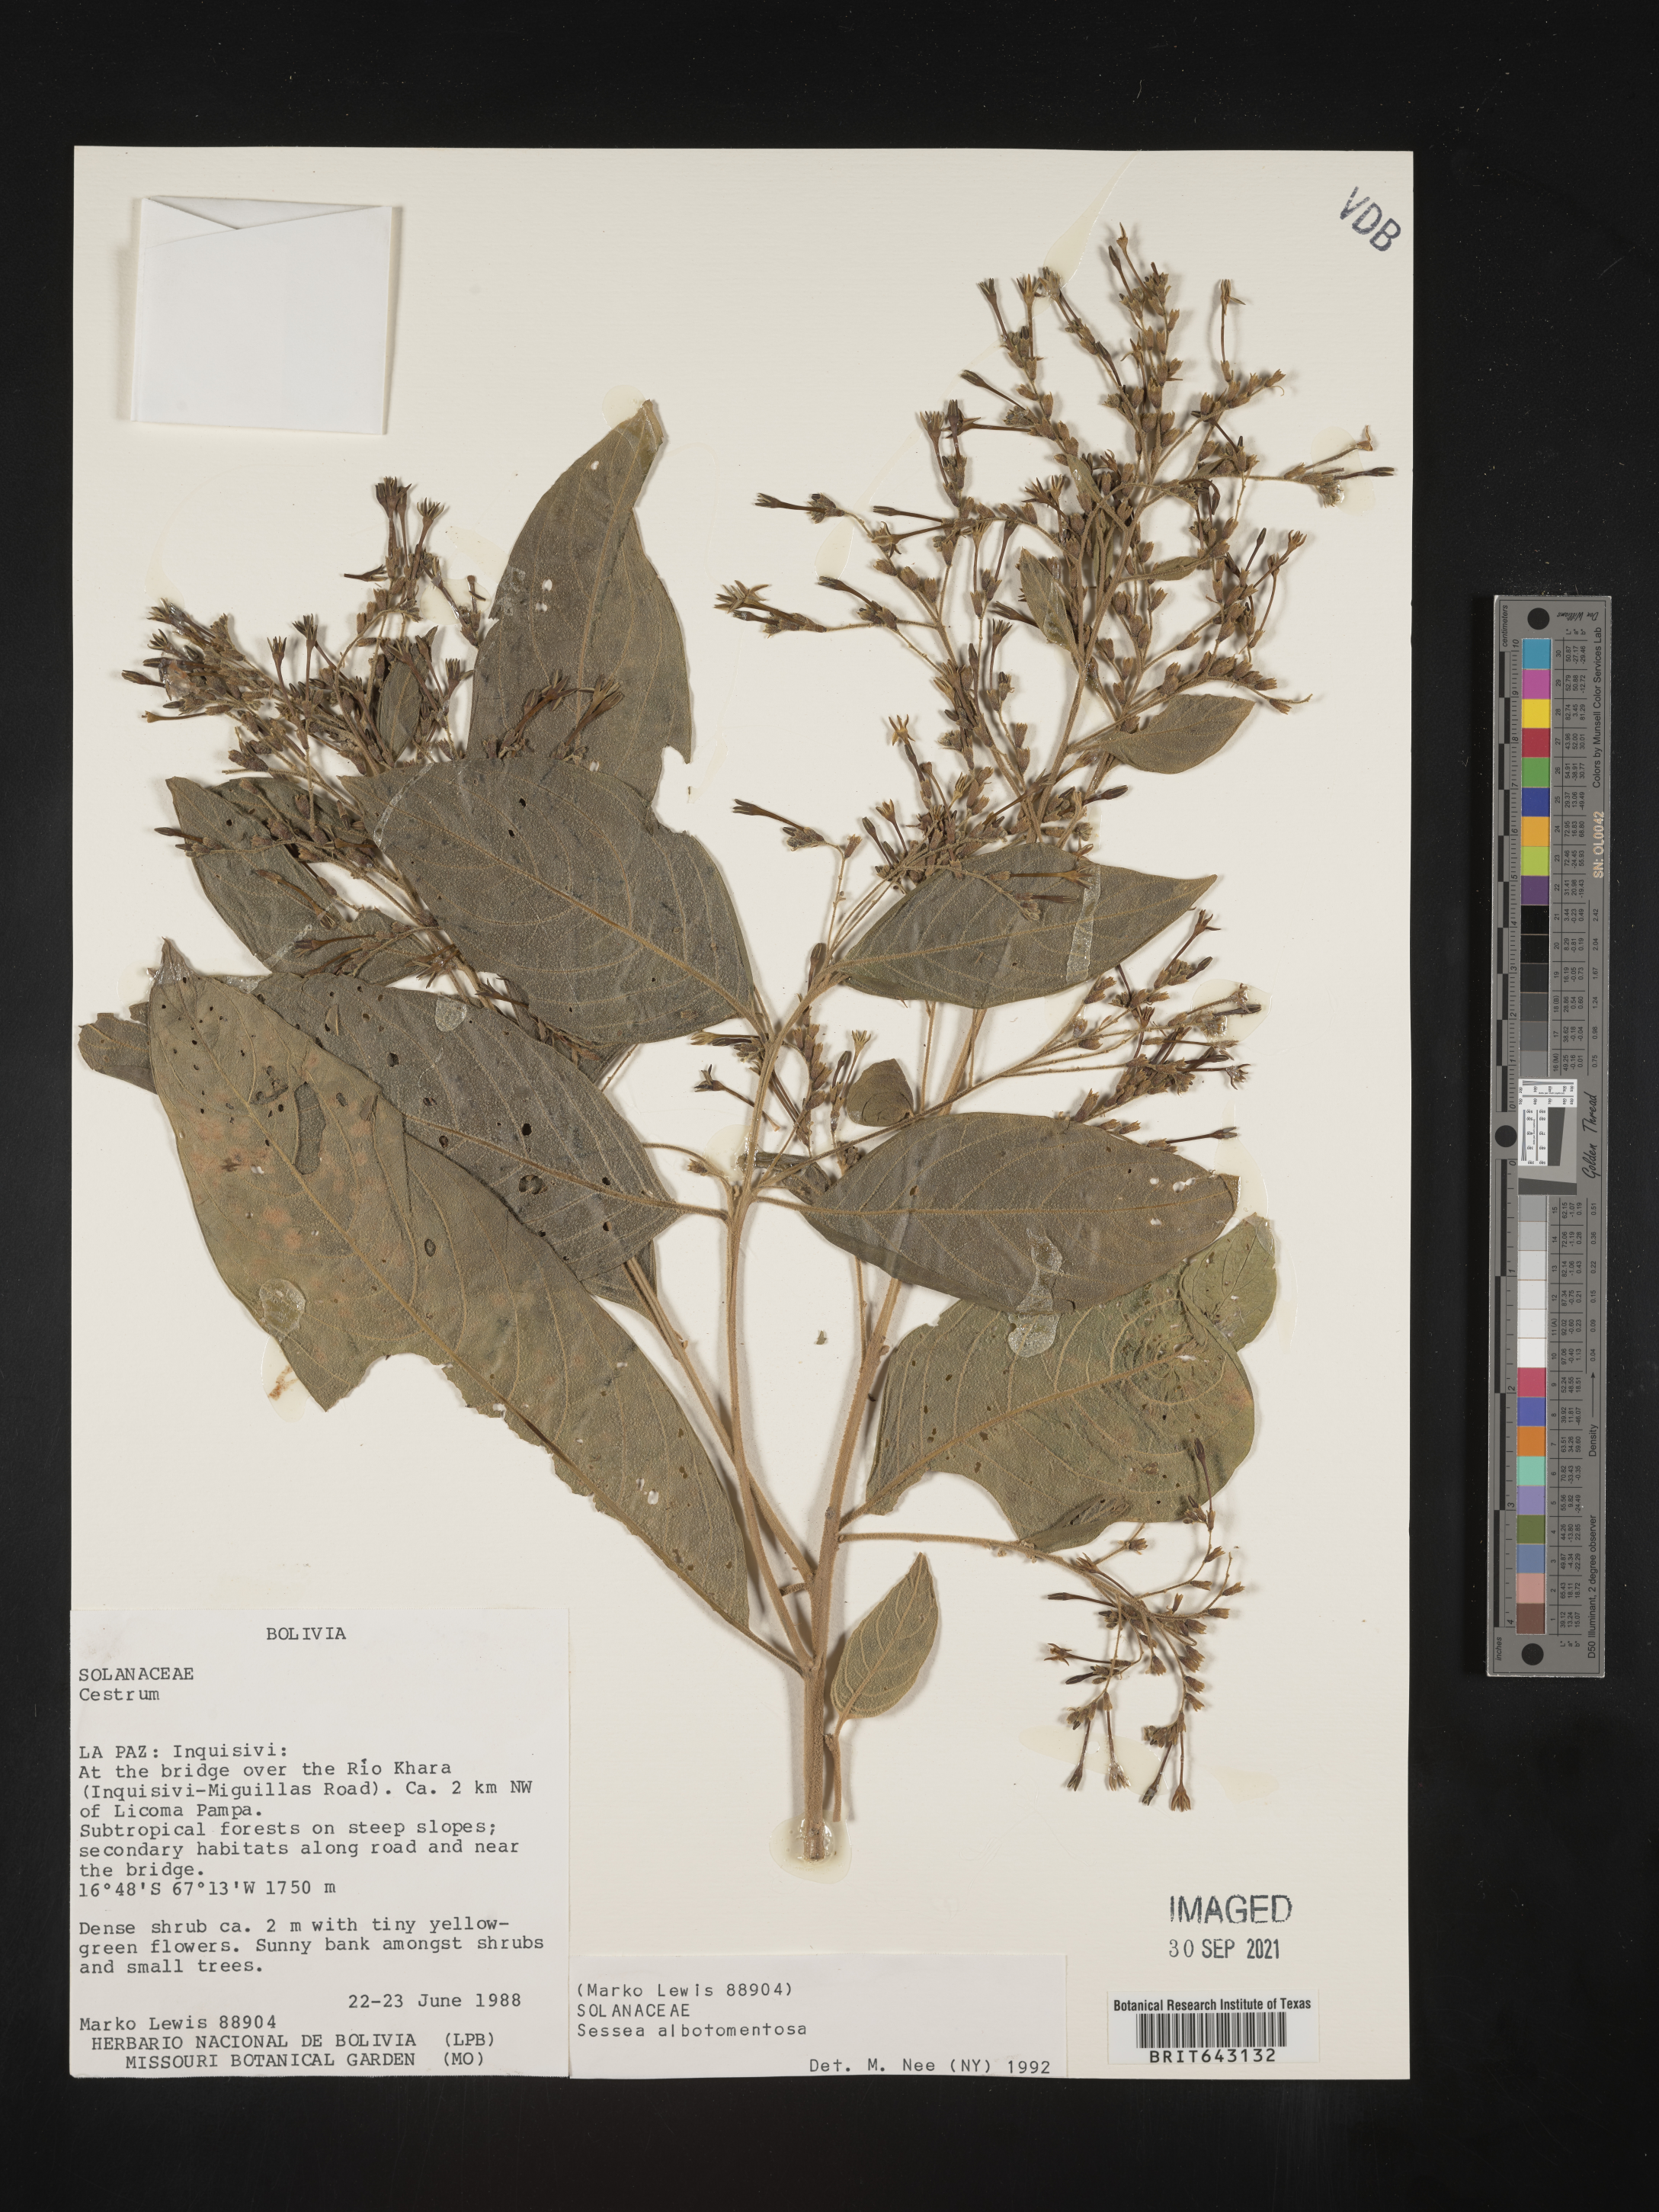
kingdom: Plantae
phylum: Tracheophyta
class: Magnoliopsida
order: Solanales
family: Solanaceae
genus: Sessea
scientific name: Sessea
